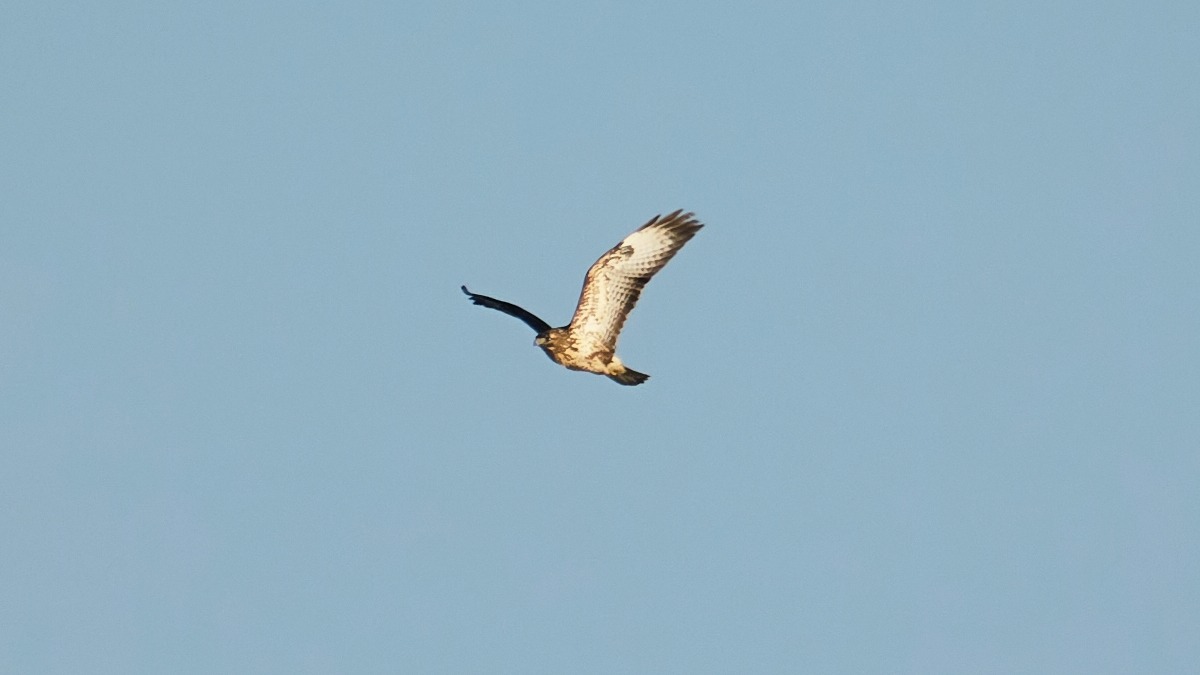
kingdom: Animalia
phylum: Chordata
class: Aves
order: Accipitriformes
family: Accipitridae
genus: Buteo
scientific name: Buteo buteo
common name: Musvåge
